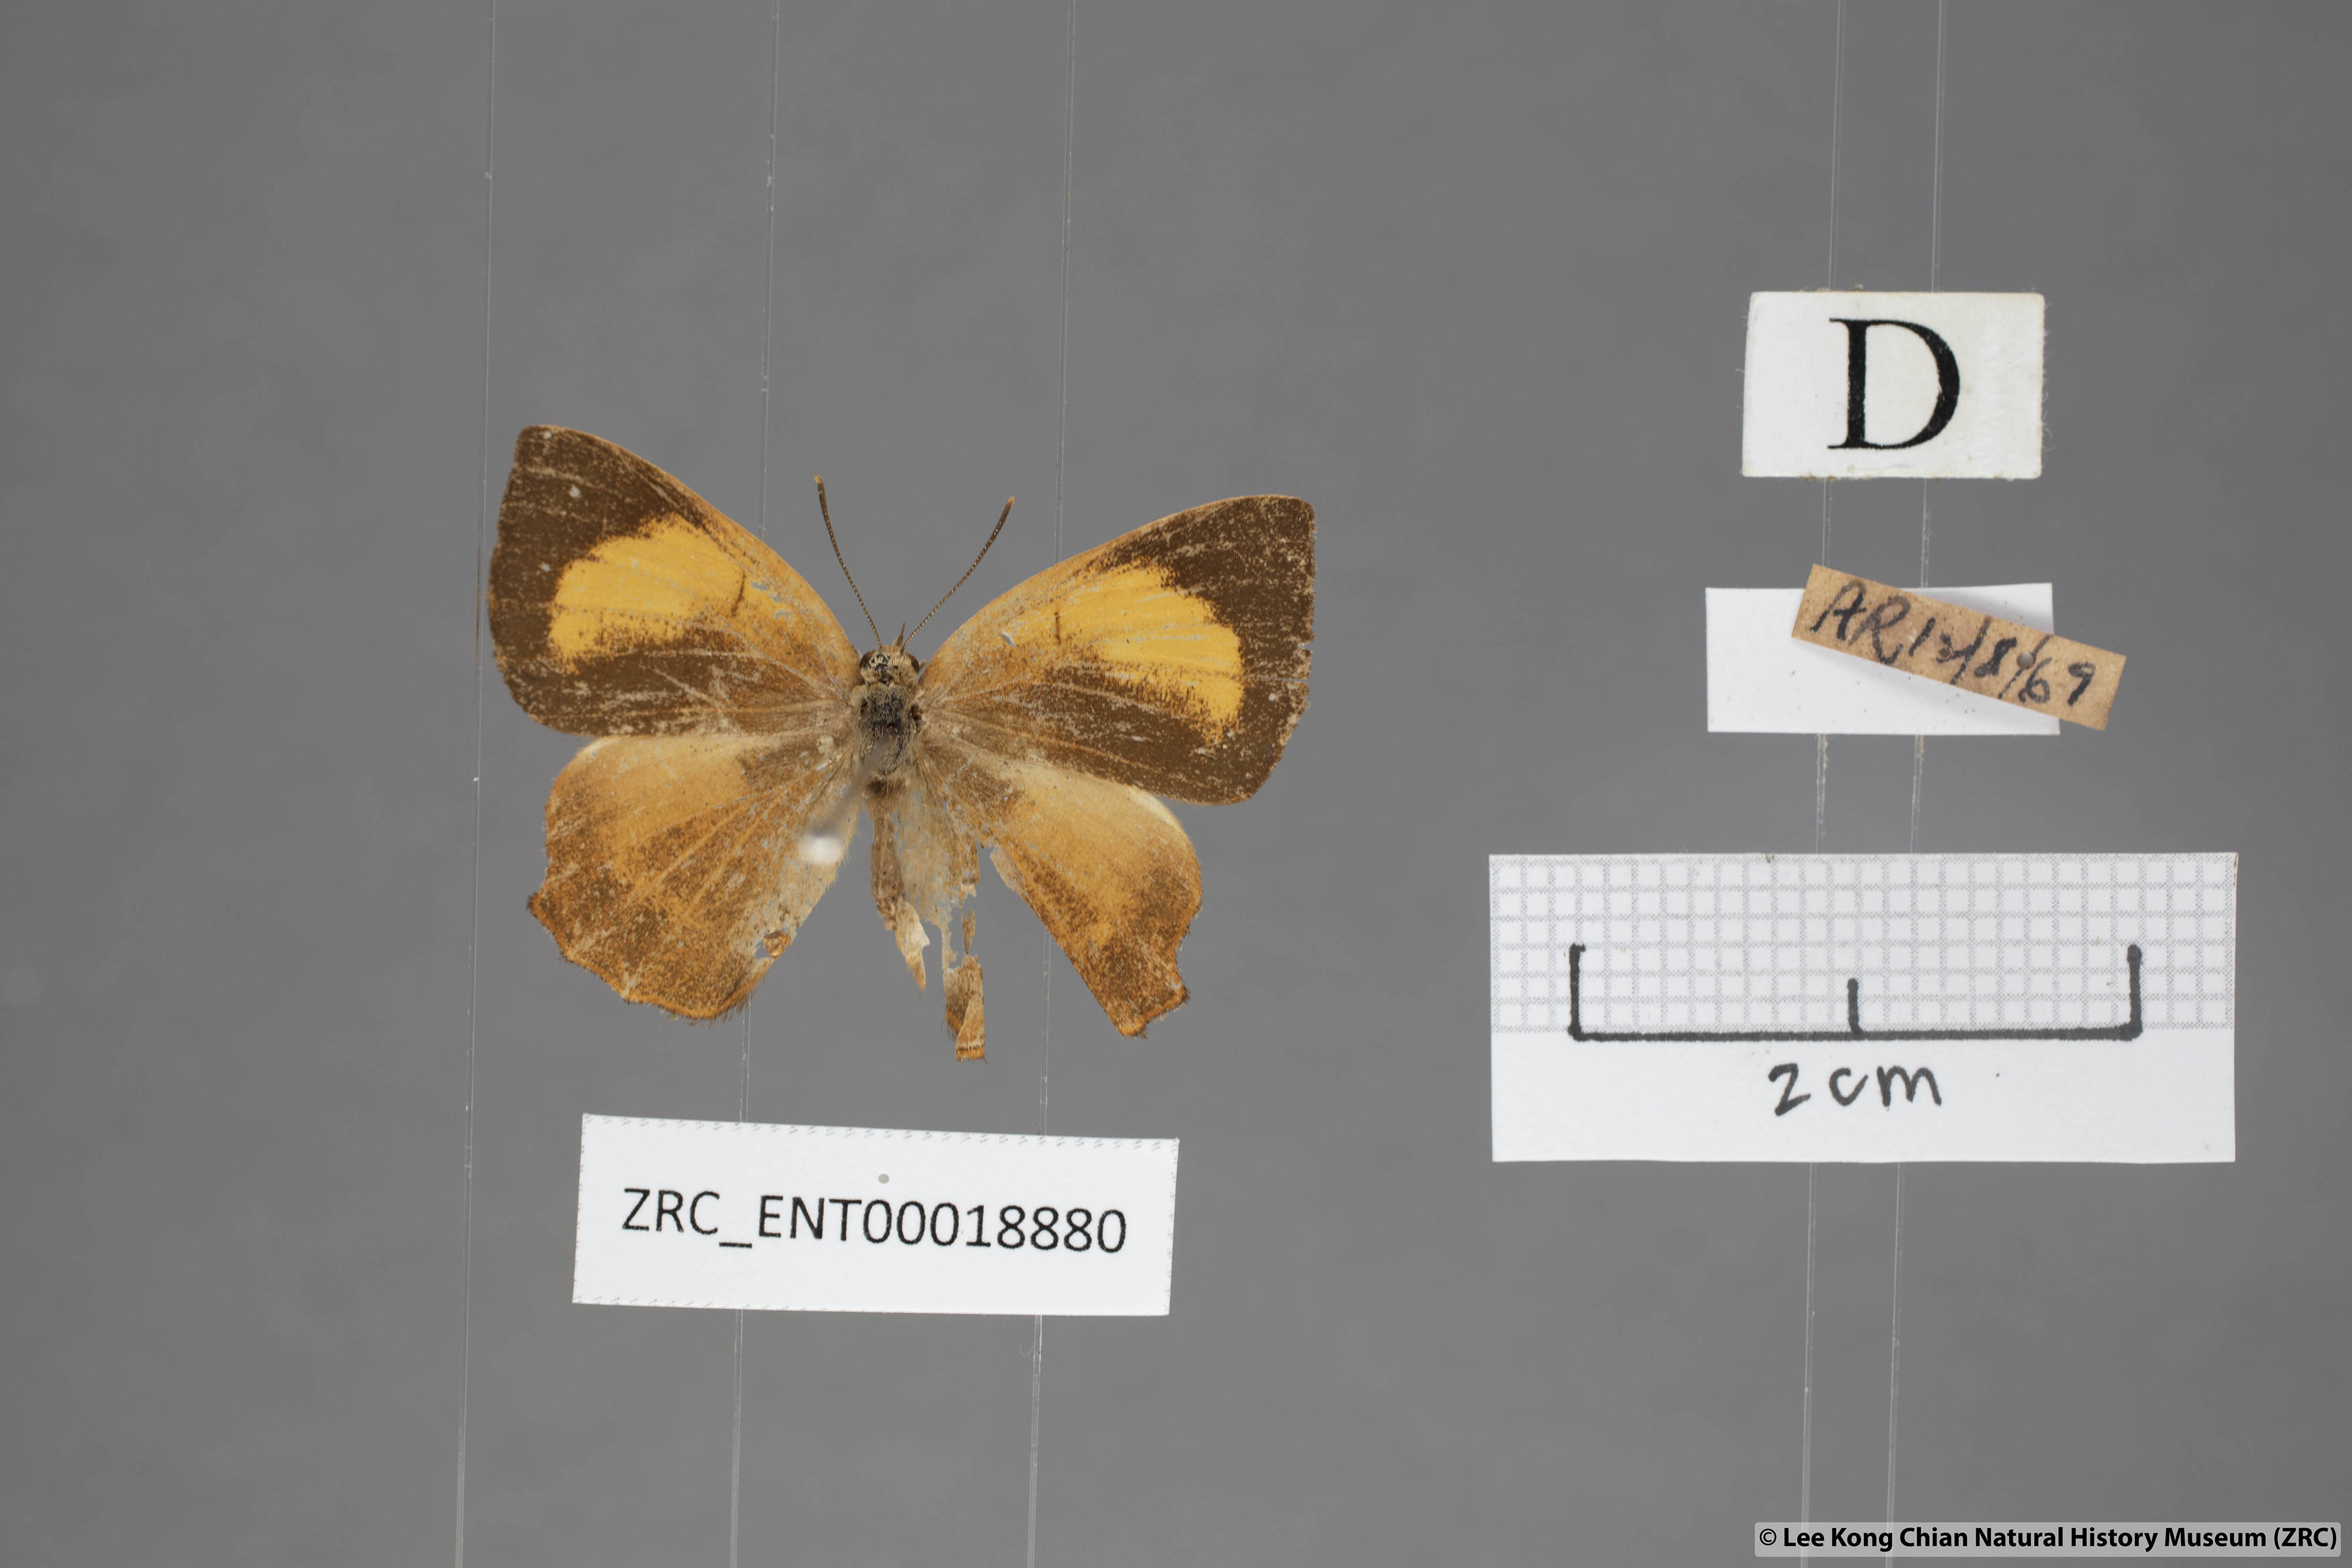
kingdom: Animalia
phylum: Arthropoda
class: Insecta
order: Lepidoptera
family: Lycaenidae
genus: Simiskina
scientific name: Simiskina
